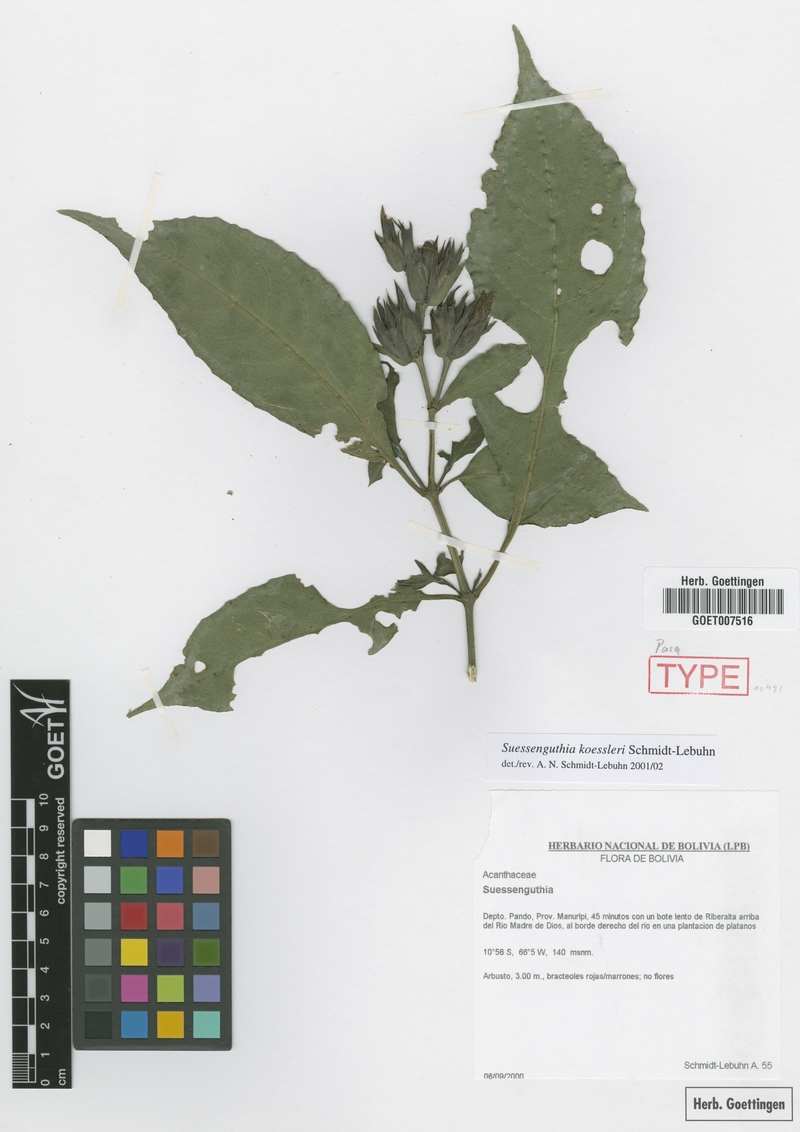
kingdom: Plantae
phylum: Tracheophyta
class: Magnoliopsida
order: Lamiales
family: Acanthaceae
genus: Suessenguthia
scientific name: Suessenguthia koessleri
